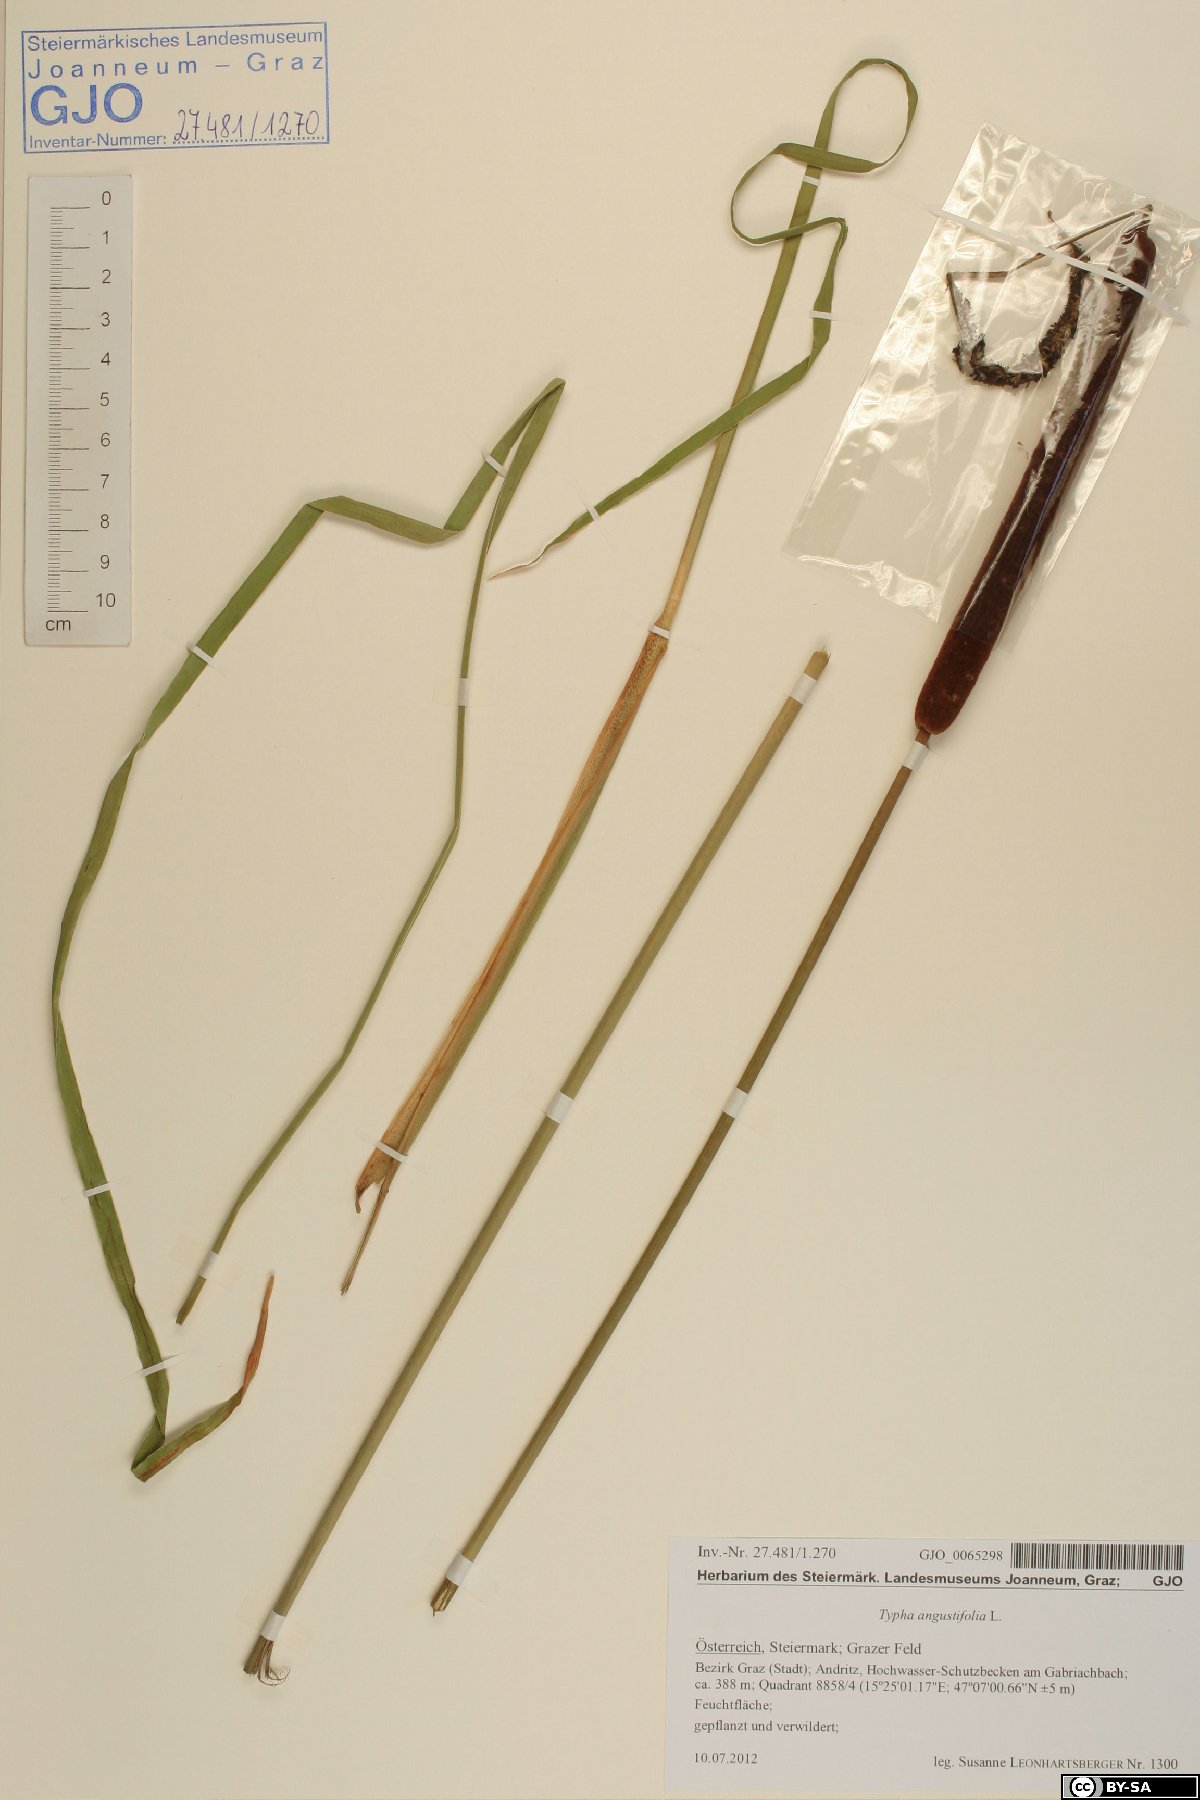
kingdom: Plantae
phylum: Tracheophyta
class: Liliopsida
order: Poales
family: Typhaceae
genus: Typha
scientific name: Typha angustifolia
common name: Lesser bulrush
